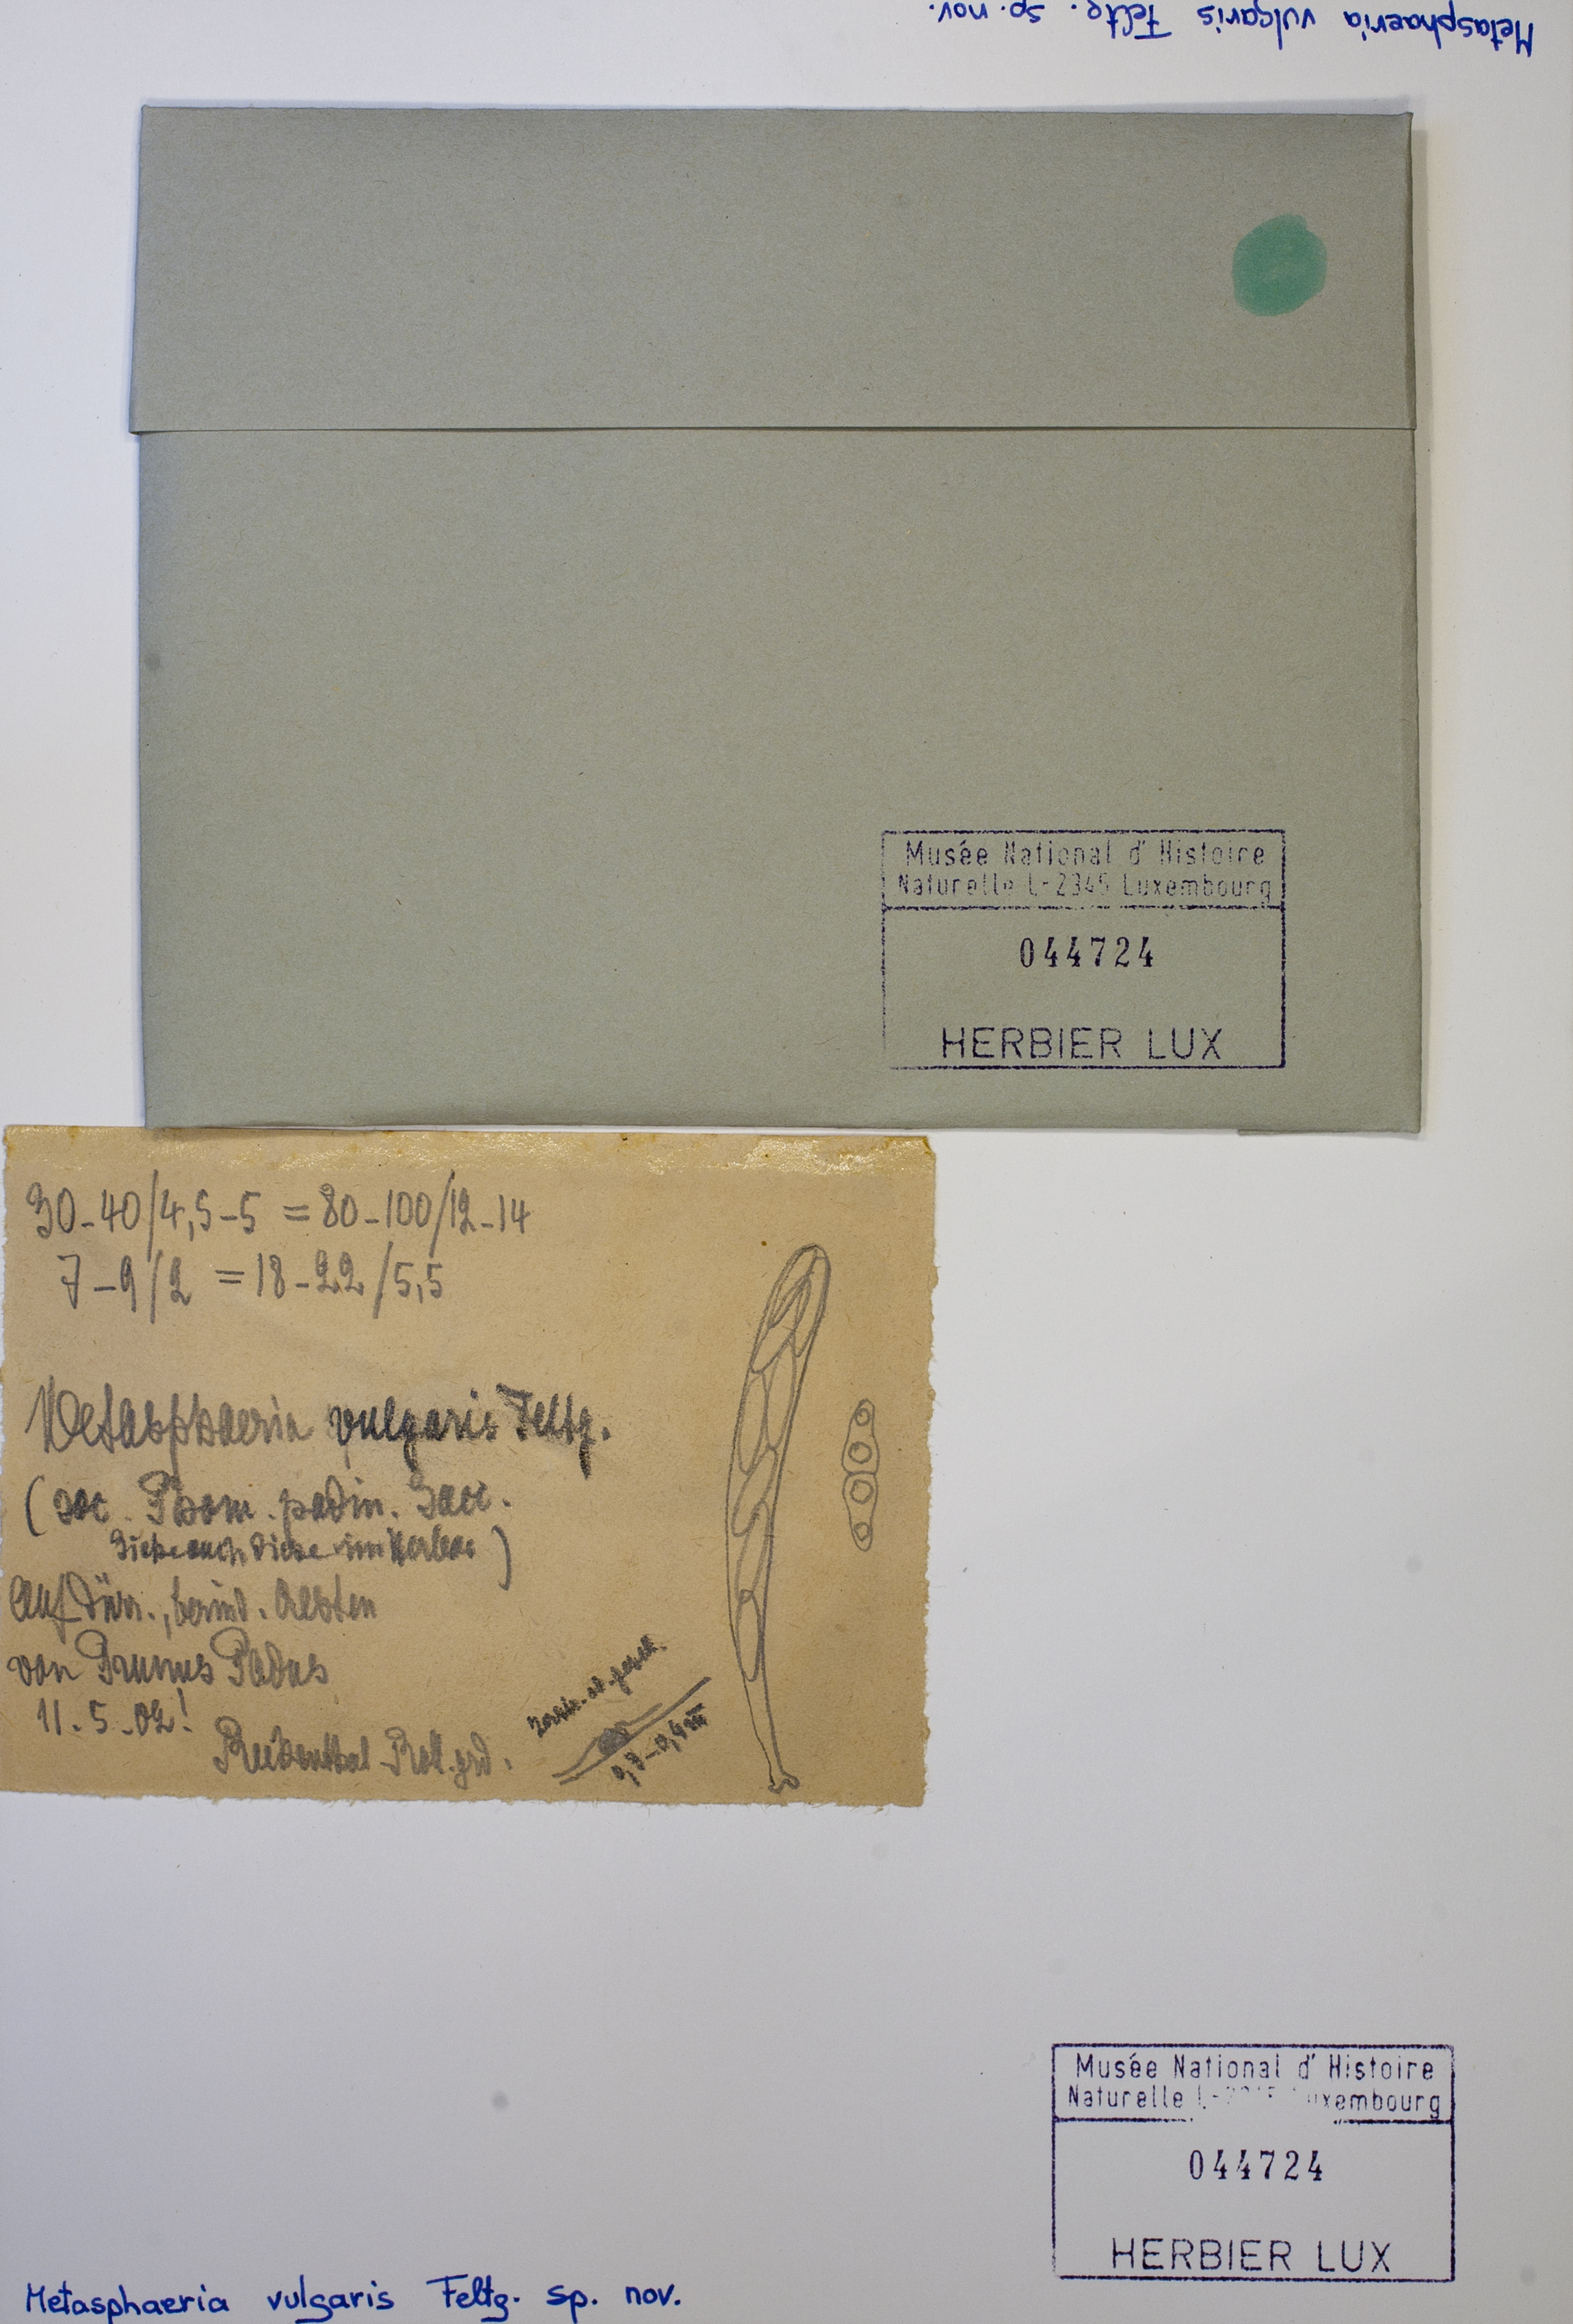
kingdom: Fungi
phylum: Ascomycota
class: Dothideomycetes
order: Dothideales
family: Saccotheciaceae
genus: Metasphaeria
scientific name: Metasphaeria vulgaris
